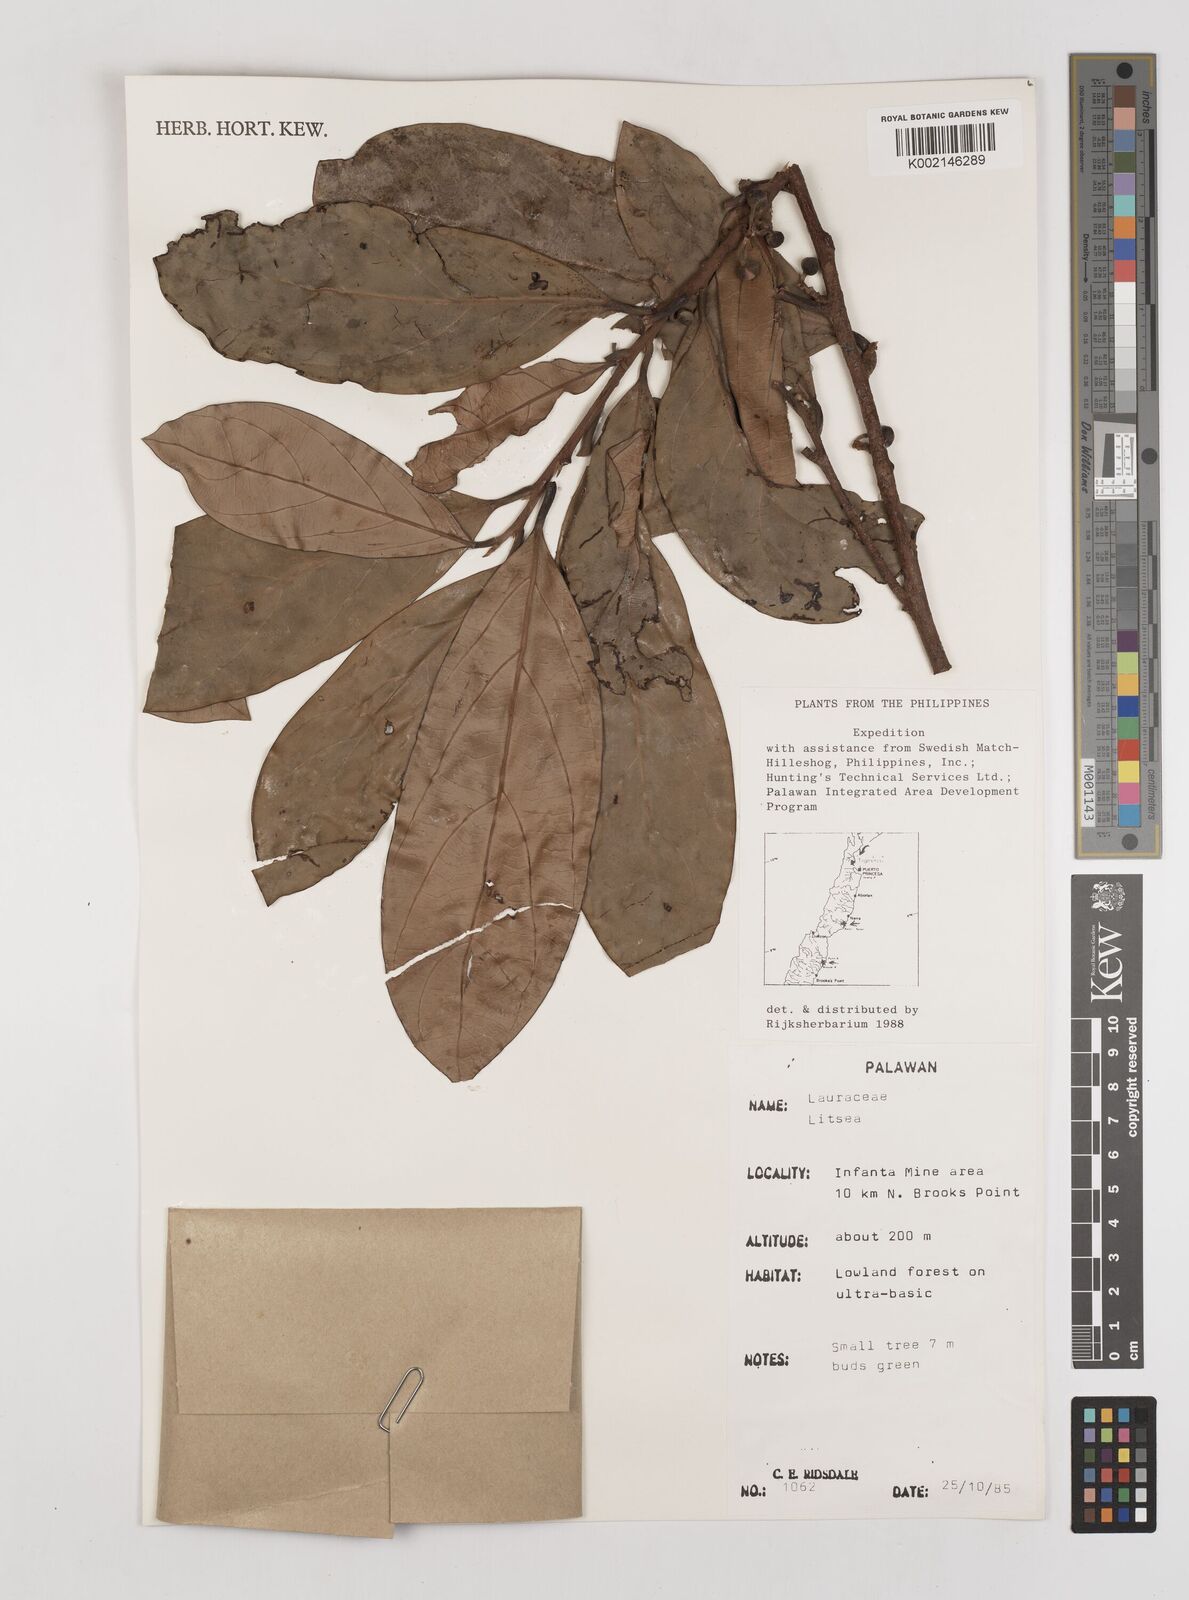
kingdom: Plantae
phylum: Tracheophyta
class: Magnoliopsida
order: Laurales
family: Lauraceae
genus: Litsea
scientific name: Litsea
